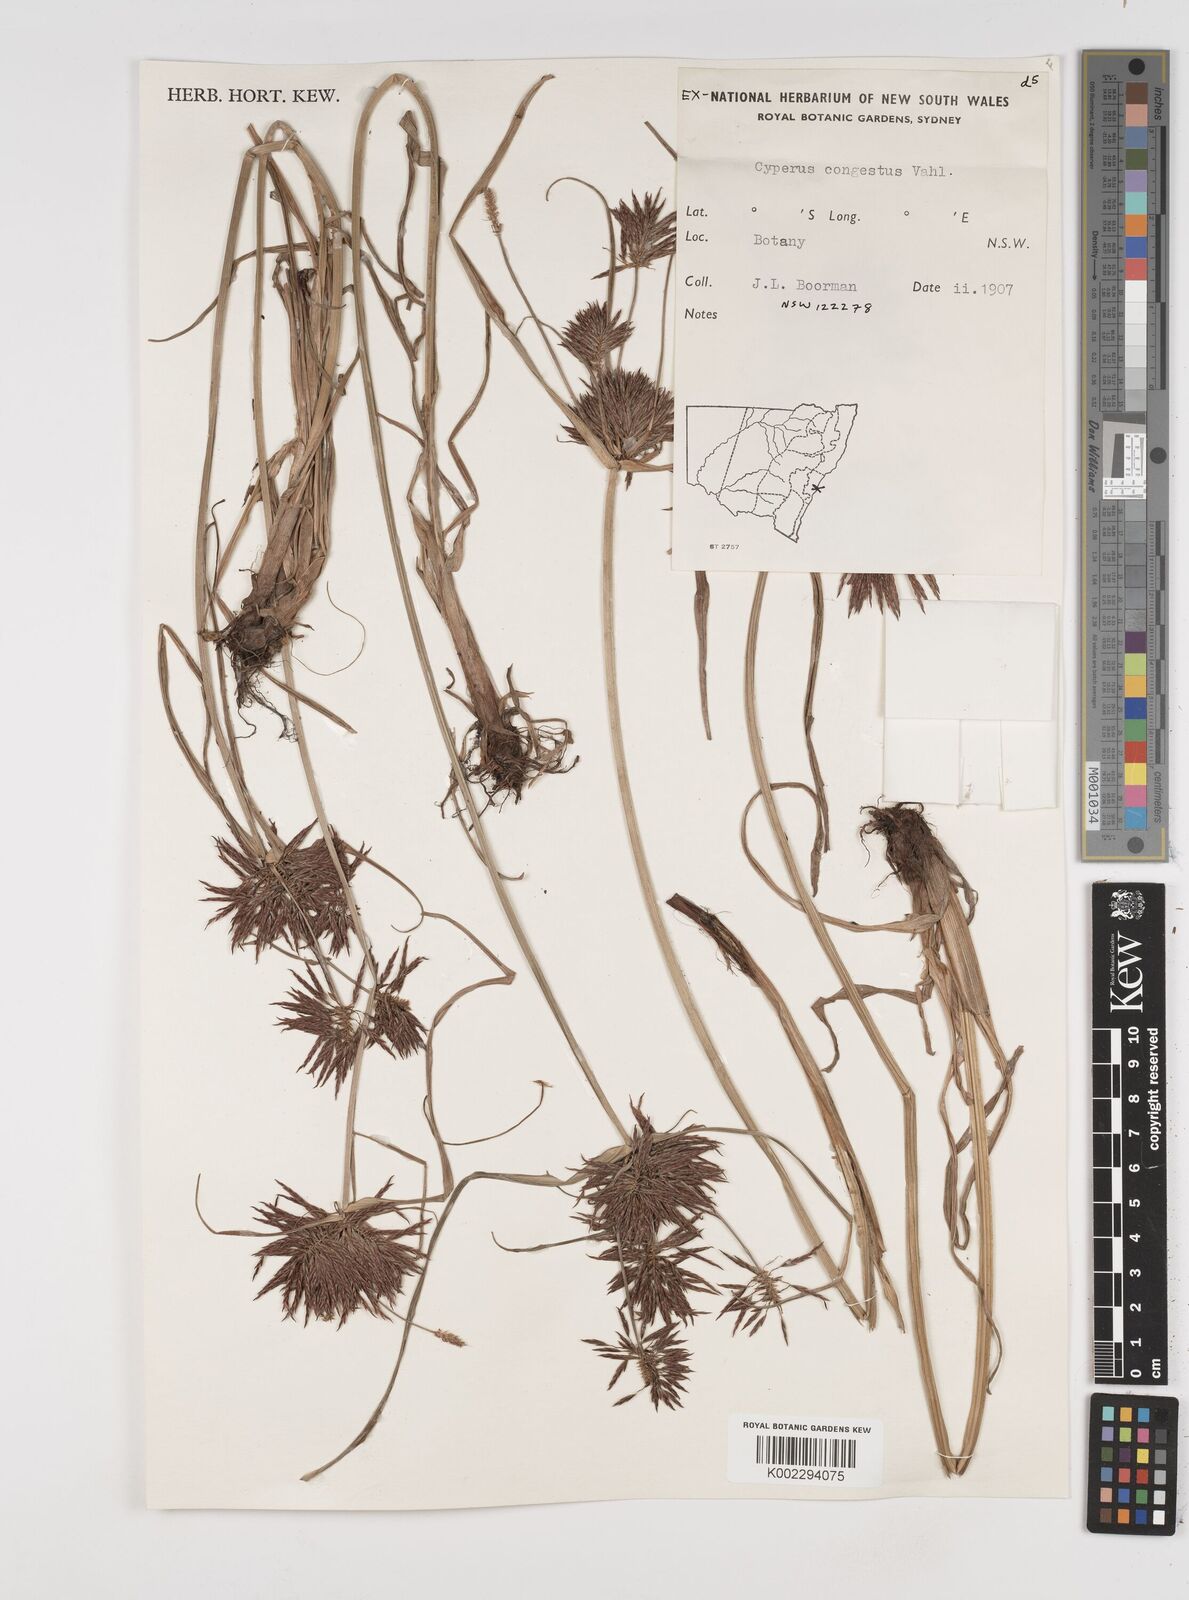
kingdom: Plantae
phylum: Tracheophyta
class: Liliopsida
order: Poales
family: Cyperaceae
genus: Cyperus
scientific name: Cyperus congestus
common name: Dense flat sedge
